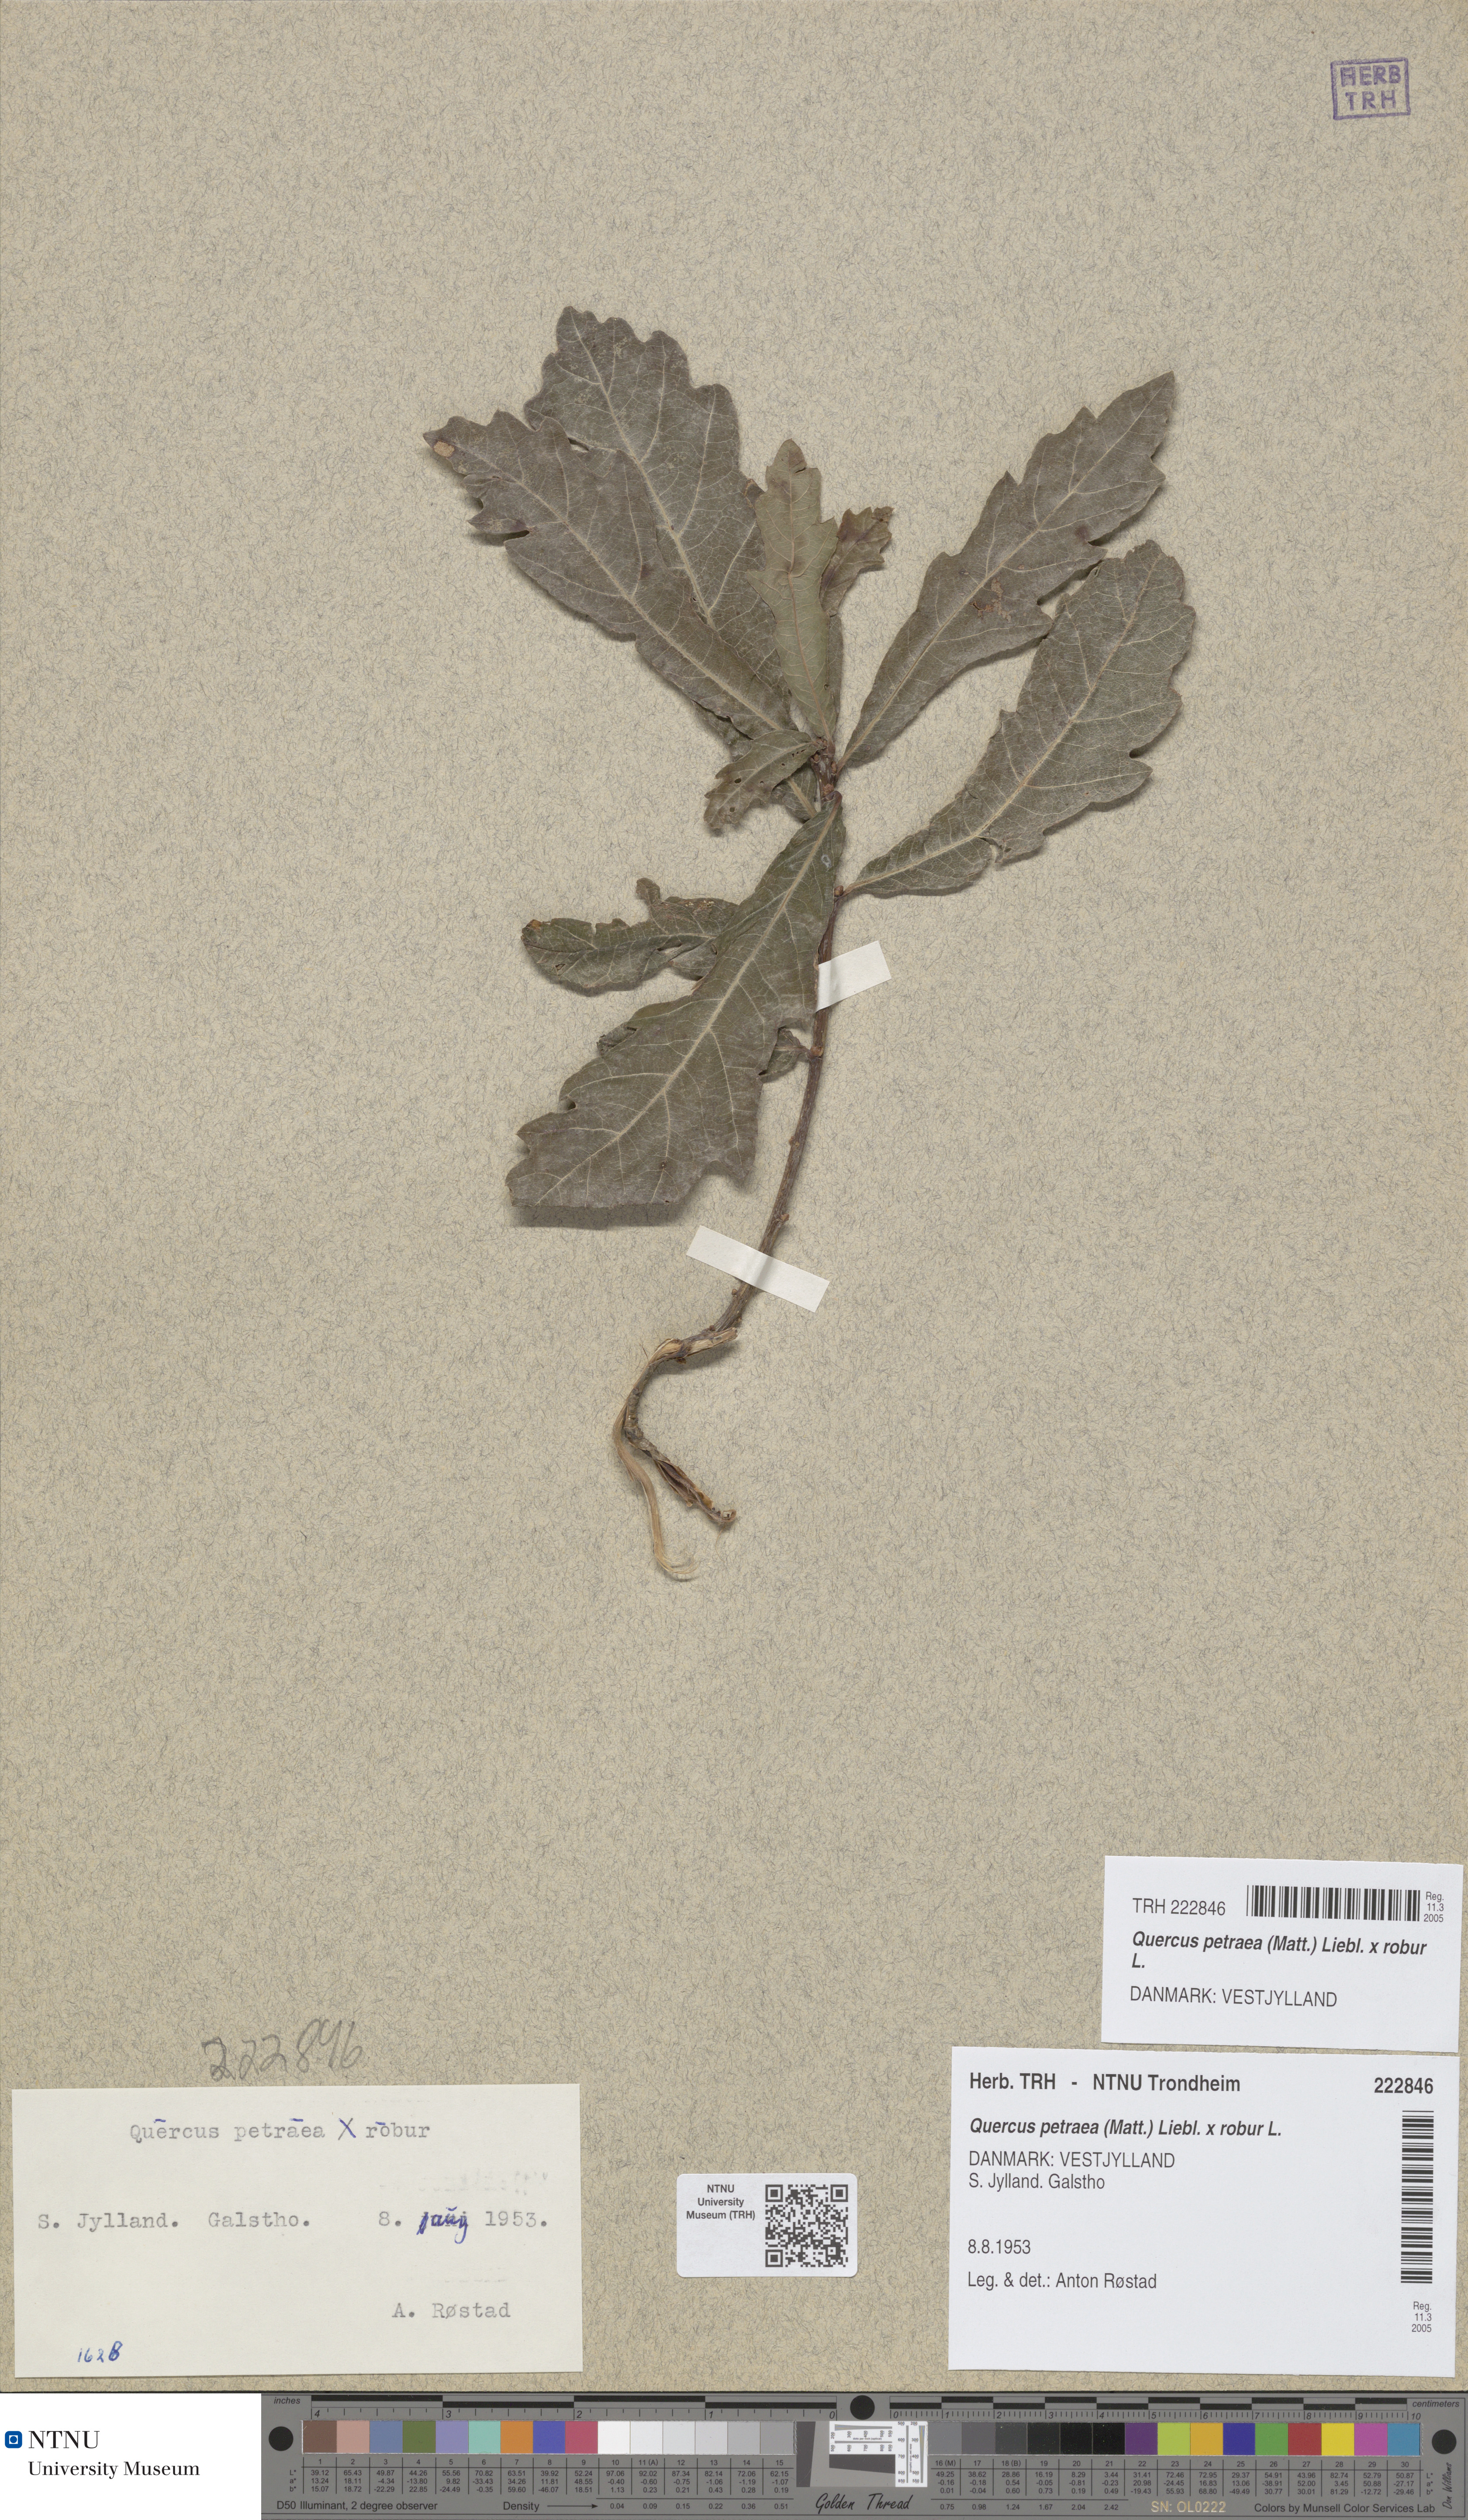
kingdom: Plantae
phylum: Tracheophyta
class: Magnoliopsida
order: Fagales
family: Fagaceae
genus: Quercus
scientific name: Quercus rosacea
